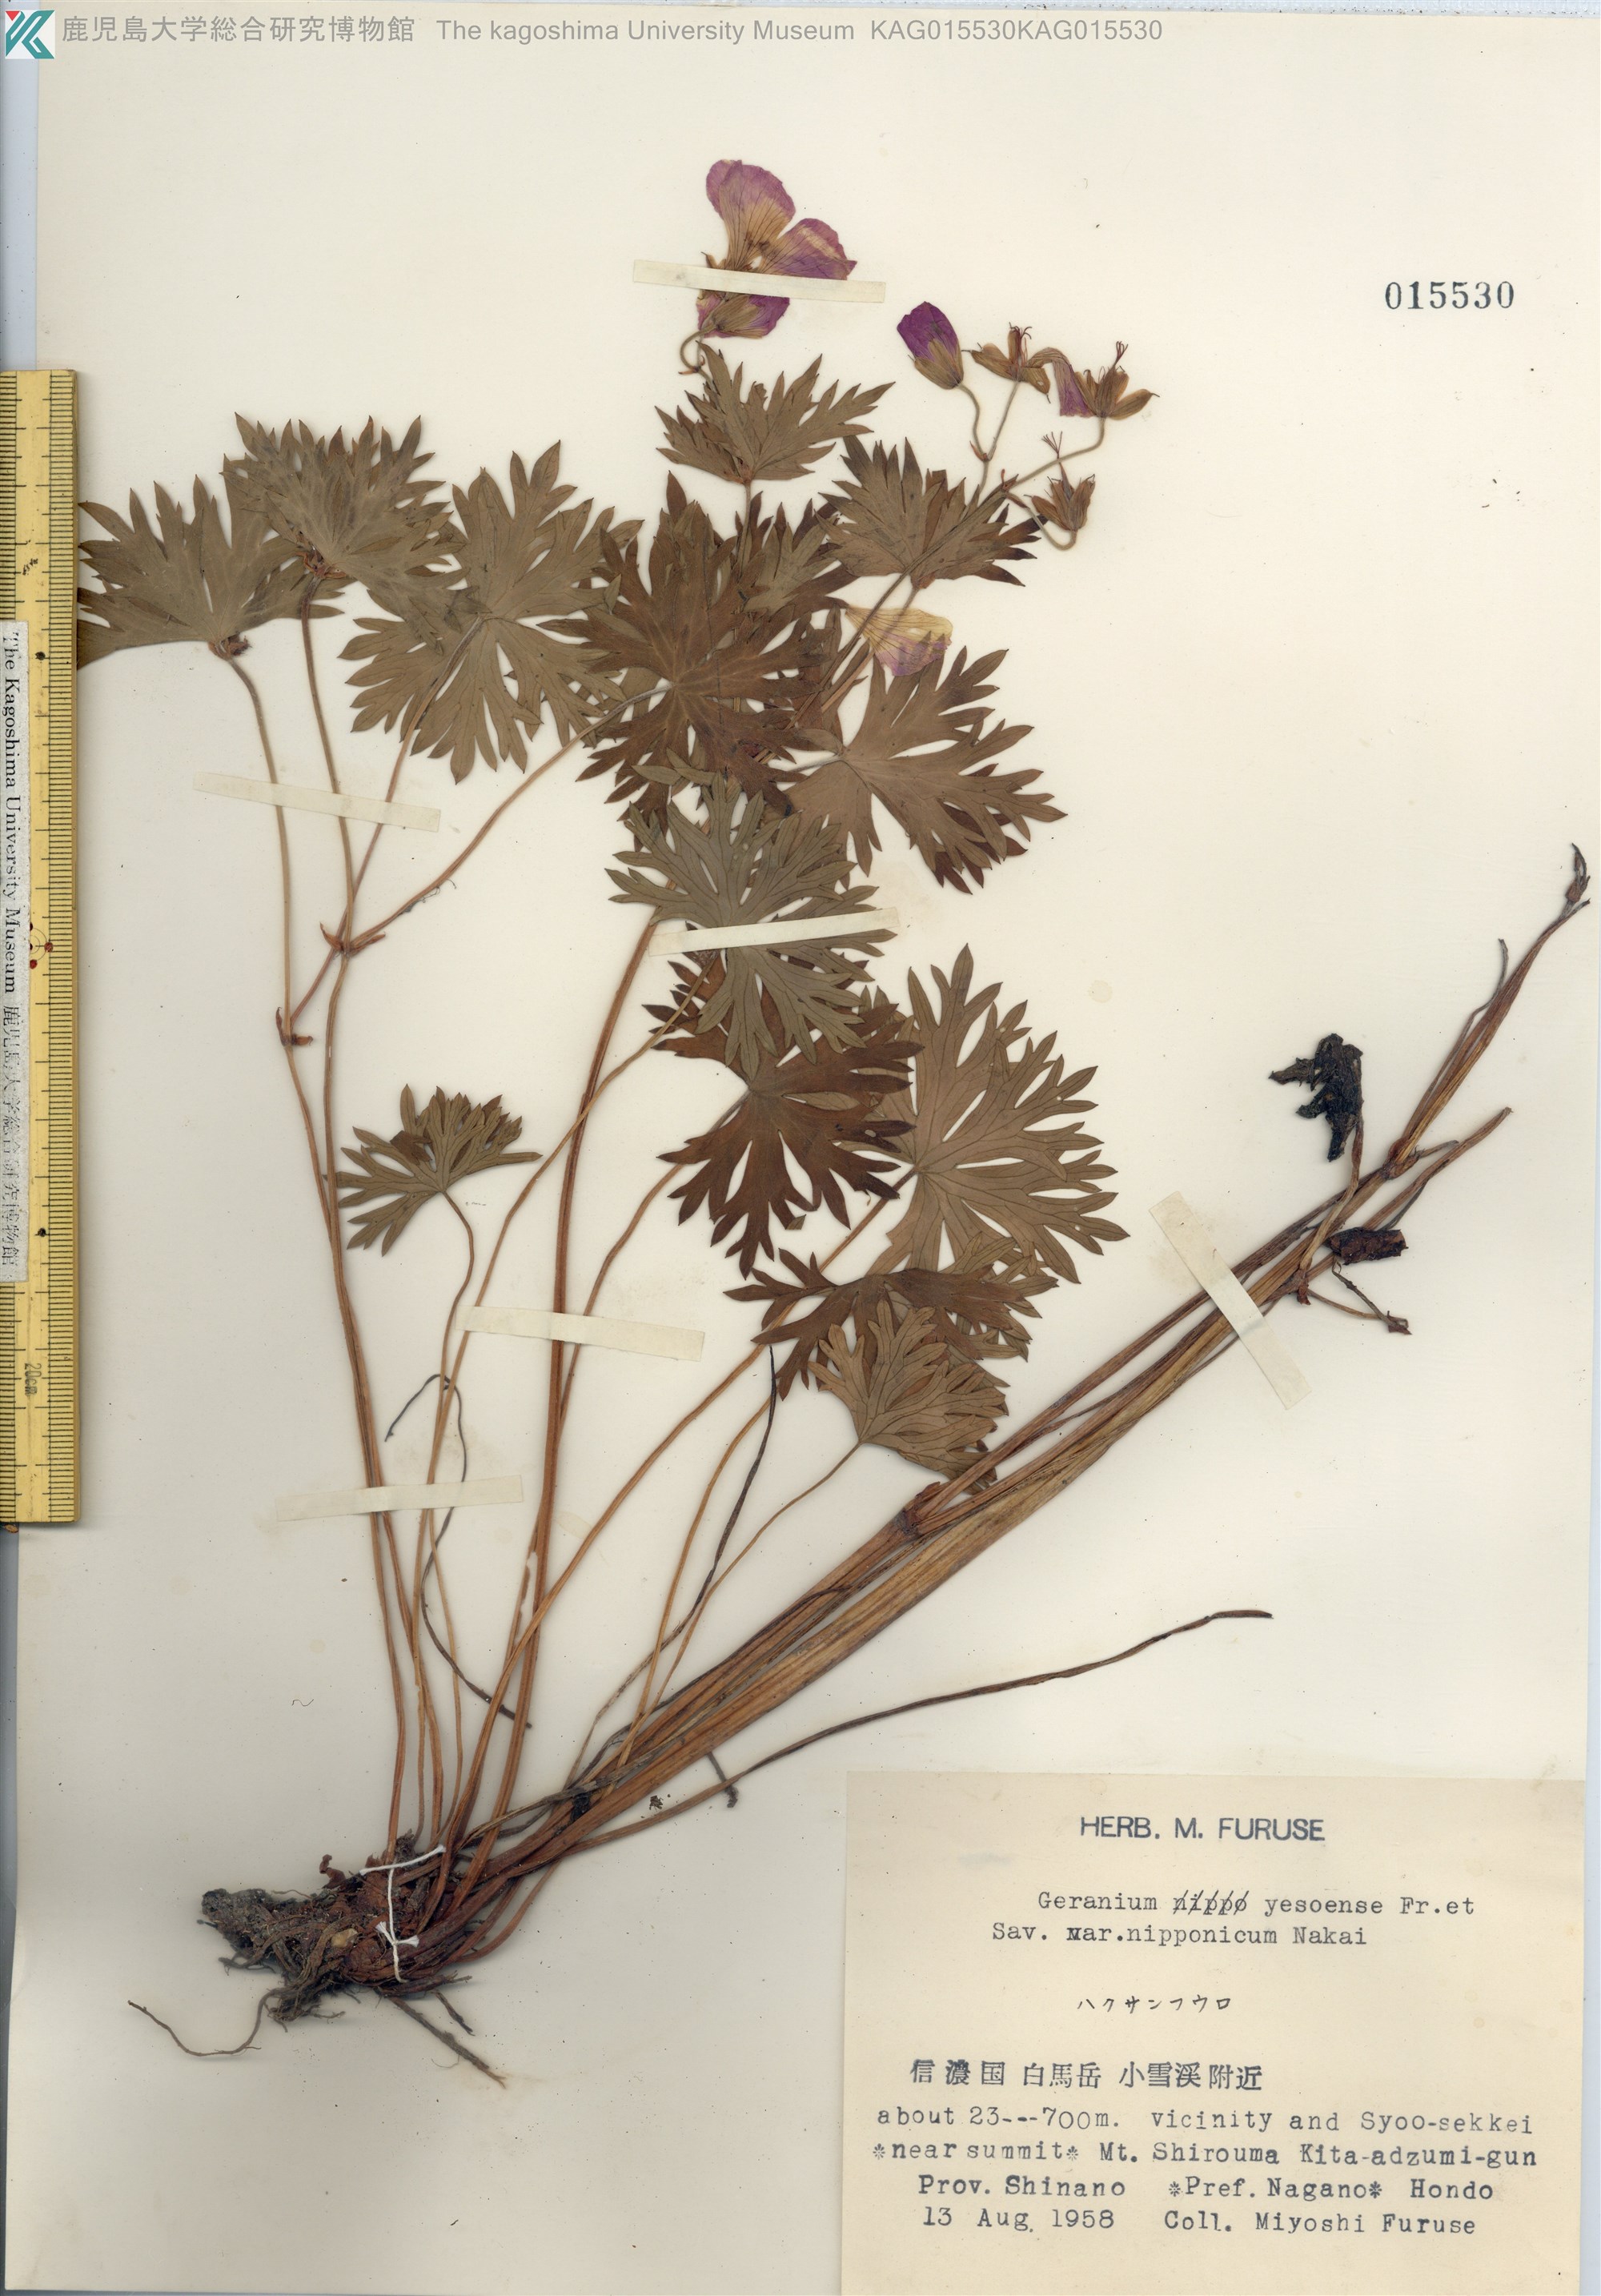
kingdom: Plantae
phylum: Tracheophyta
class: Magnoliopsida
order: Geraniales
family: Geraniaceae
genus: Geranium
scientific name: Geranium yesoense
